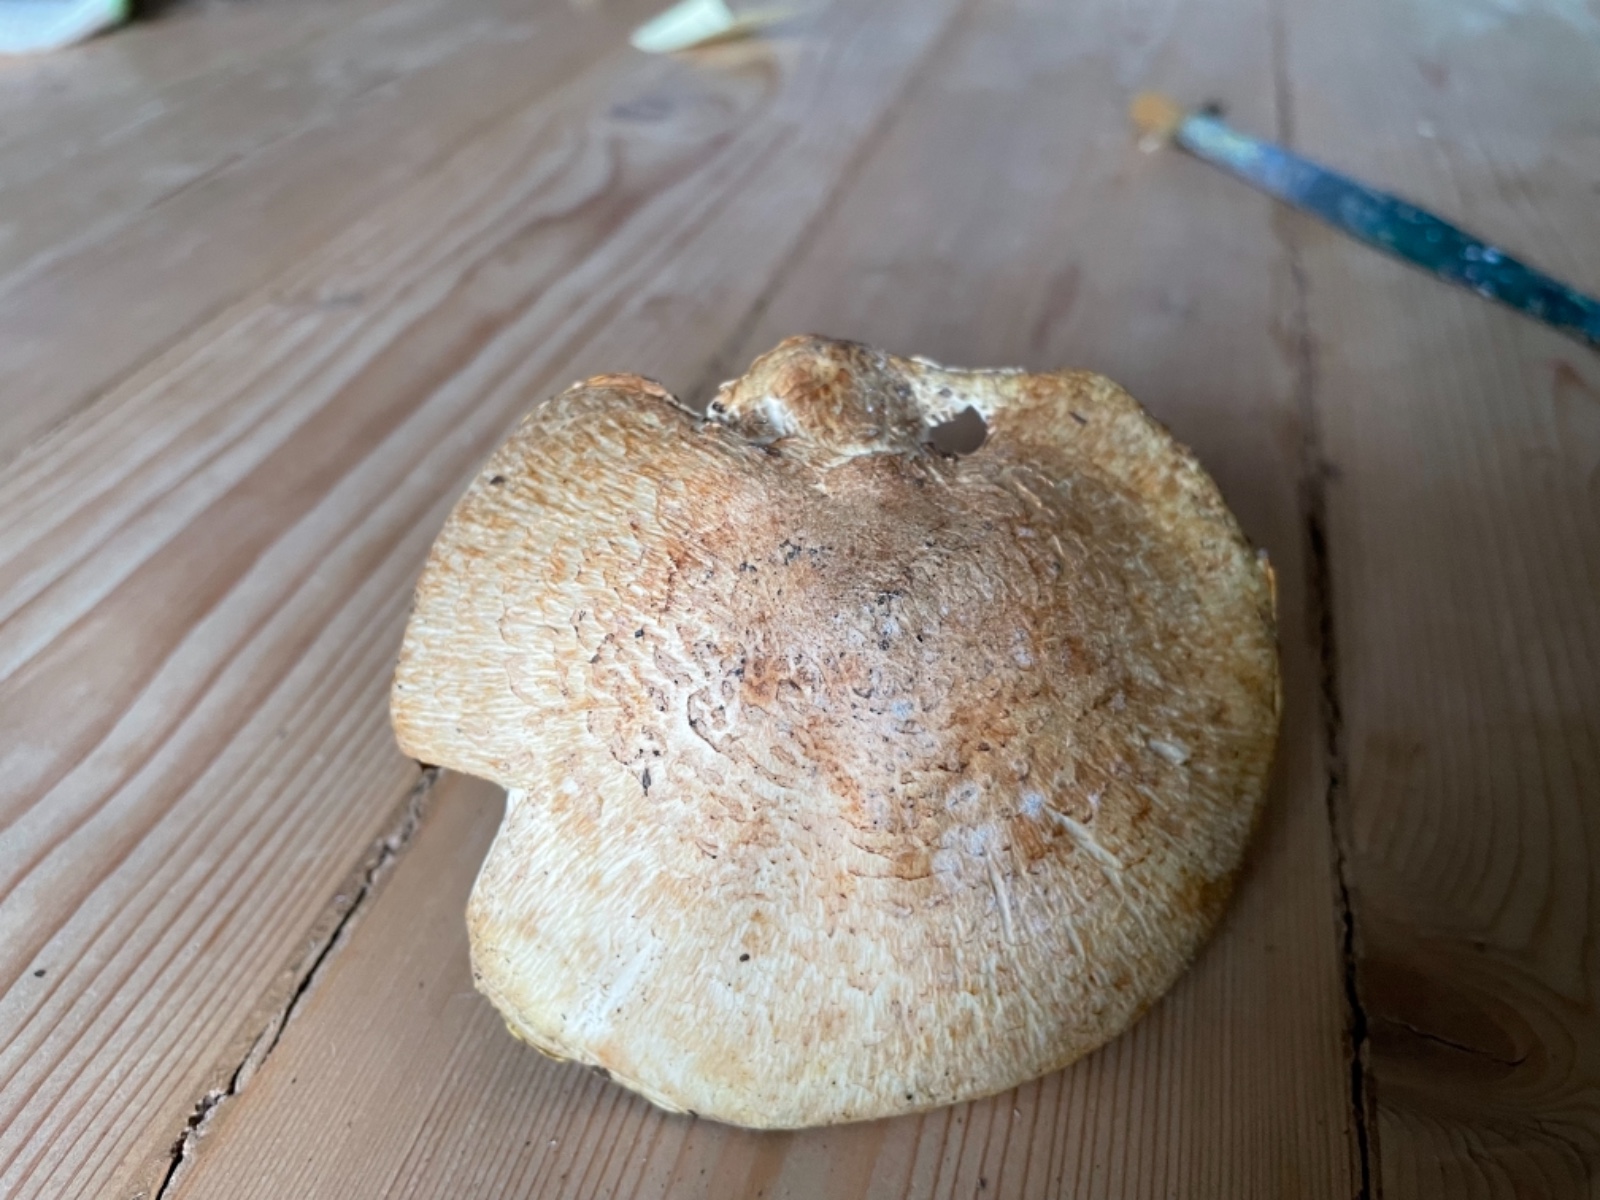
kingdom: Fungi
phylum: Basidiomycota
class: Agaricomycetes
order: Agaricales
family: Agaricaceae
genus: Agaricus
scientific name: Agaricus
